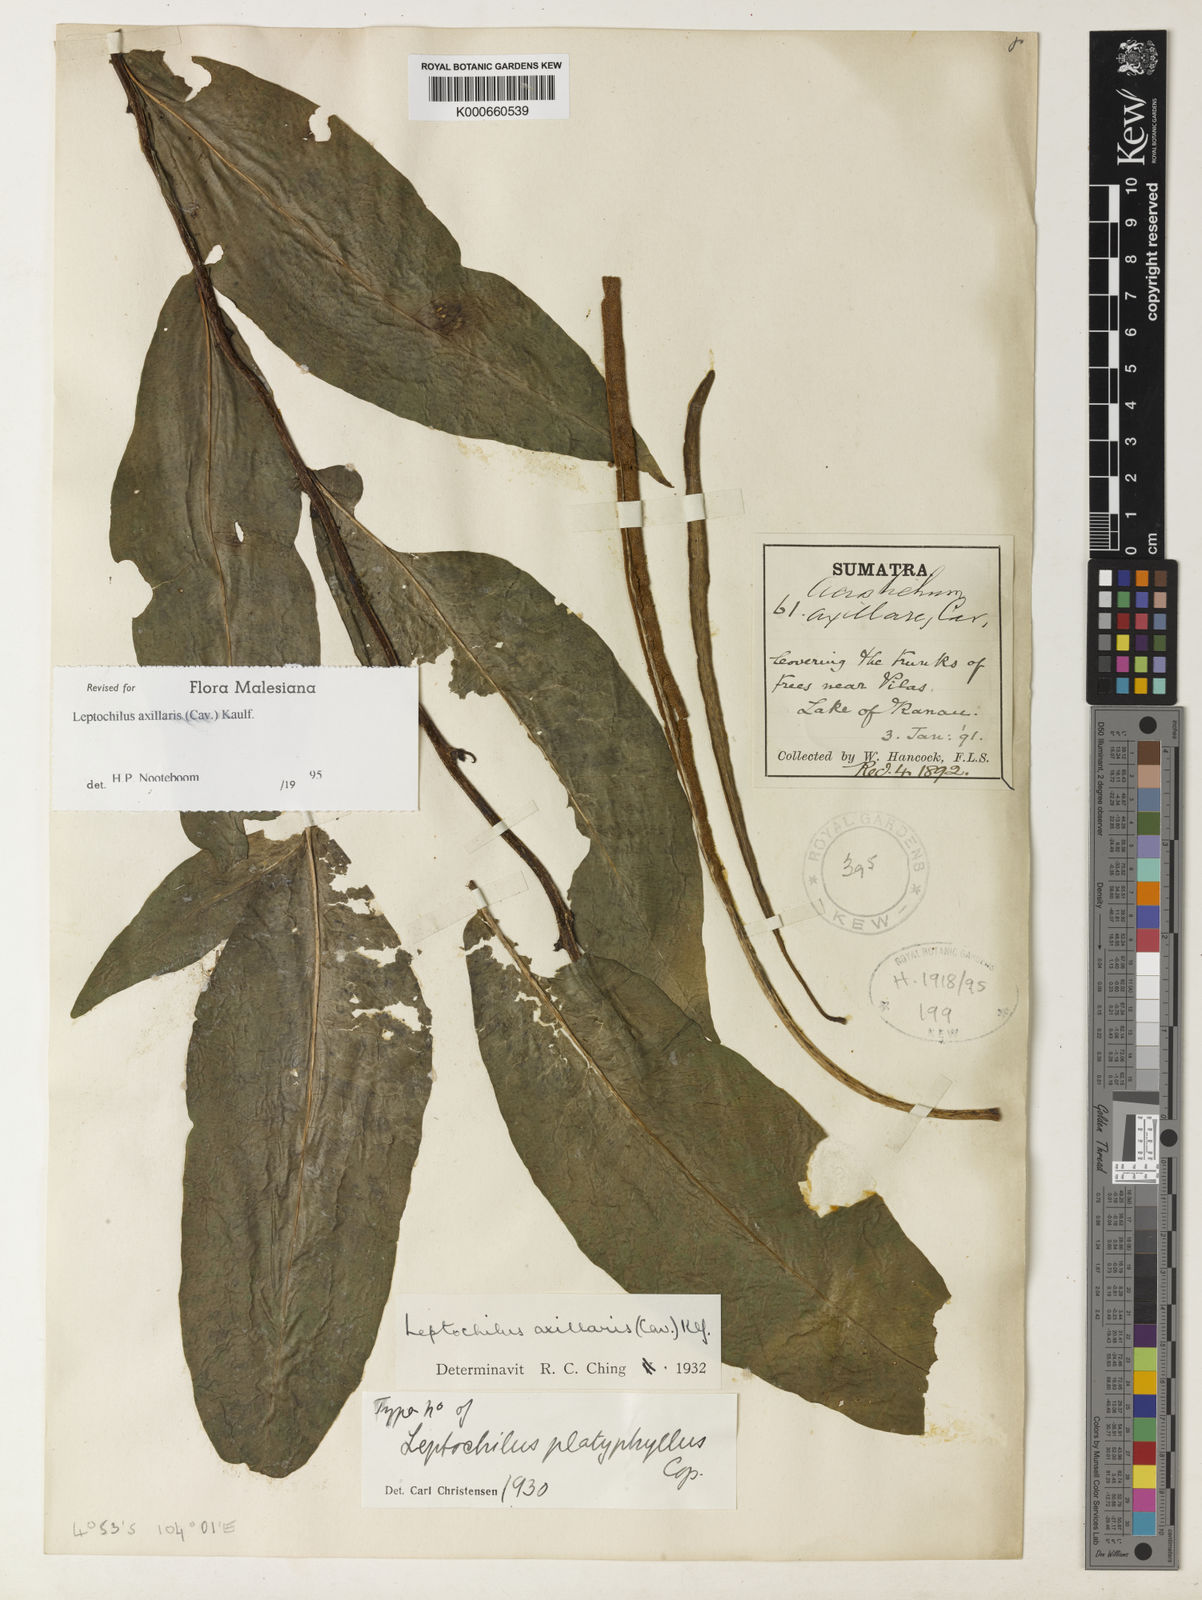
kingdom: Plantae
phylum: Tracheophyta
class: Polypodiopsida
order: Polypodiales
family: Polypodiaceae
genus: Leptochilus
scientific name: Leptochilus axillaris
